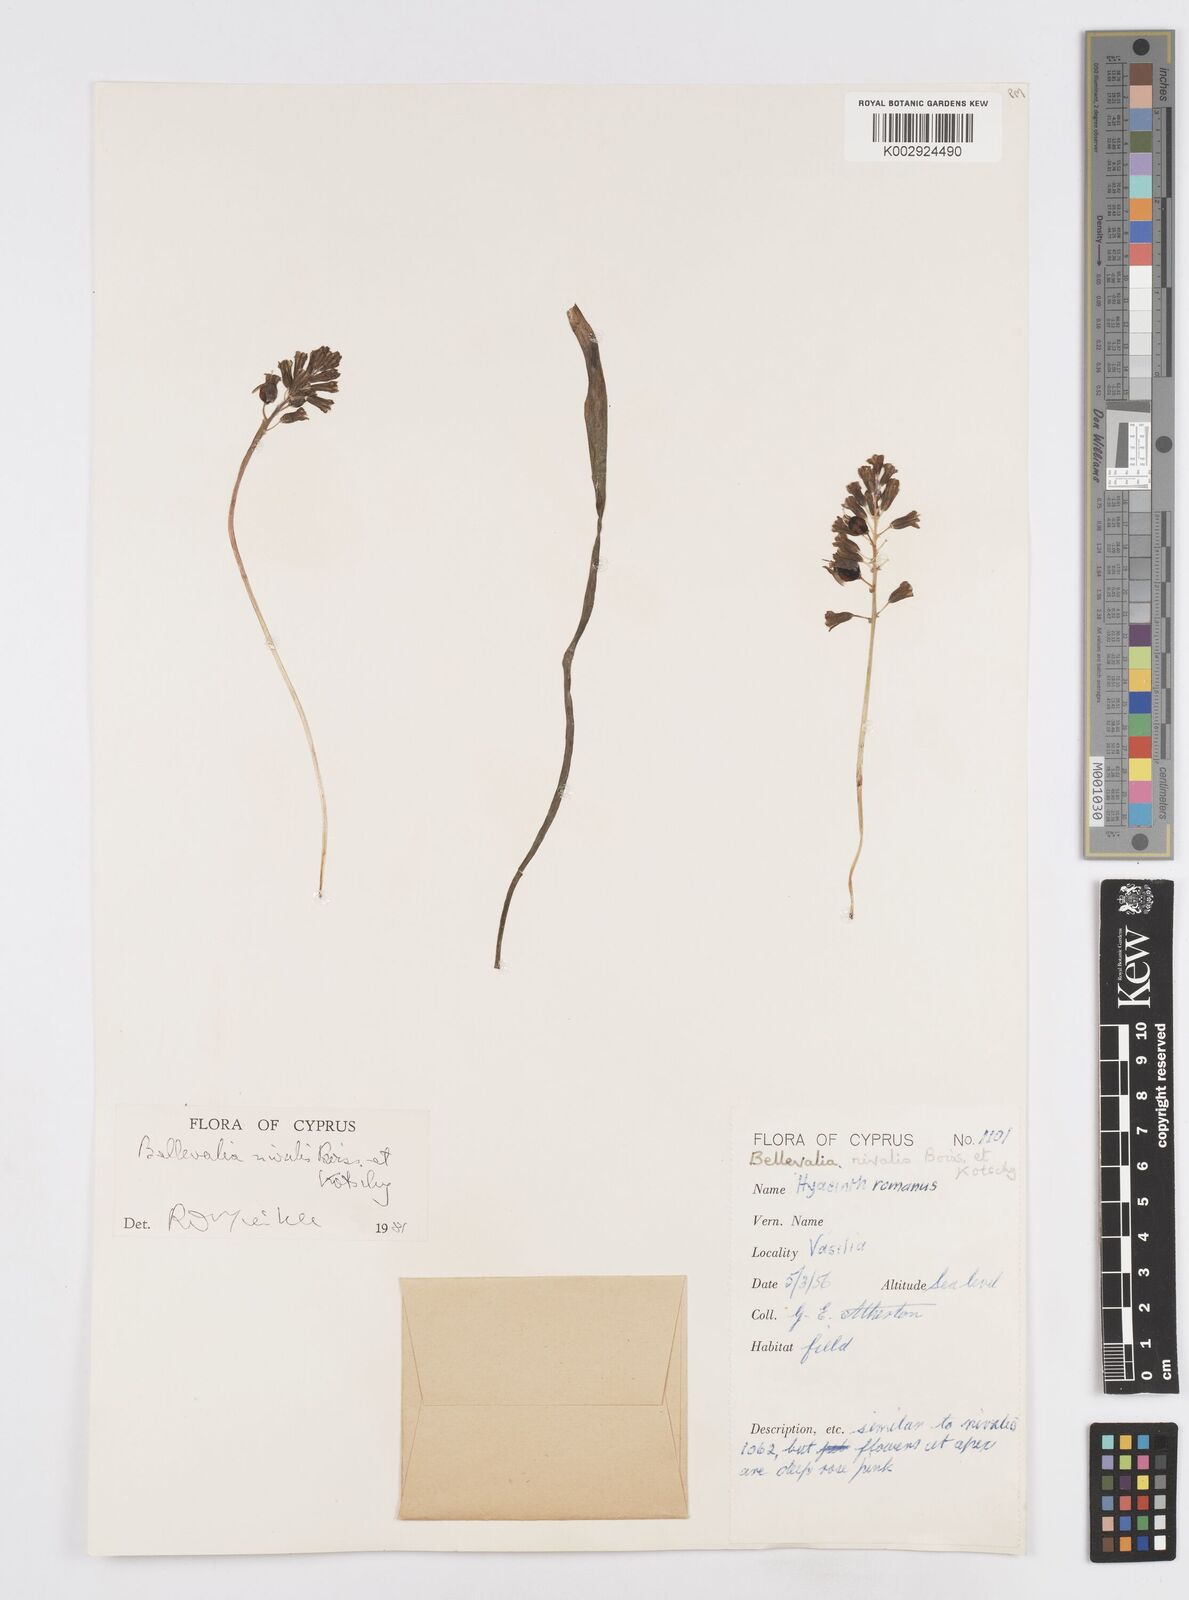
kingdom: Plantae
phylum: Tracheophyta
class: Liliopsida
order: Asparagales
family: Asparagaceae
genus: Bellevalia
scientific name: Bellevalia nivalis
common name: Snow bellevalia
